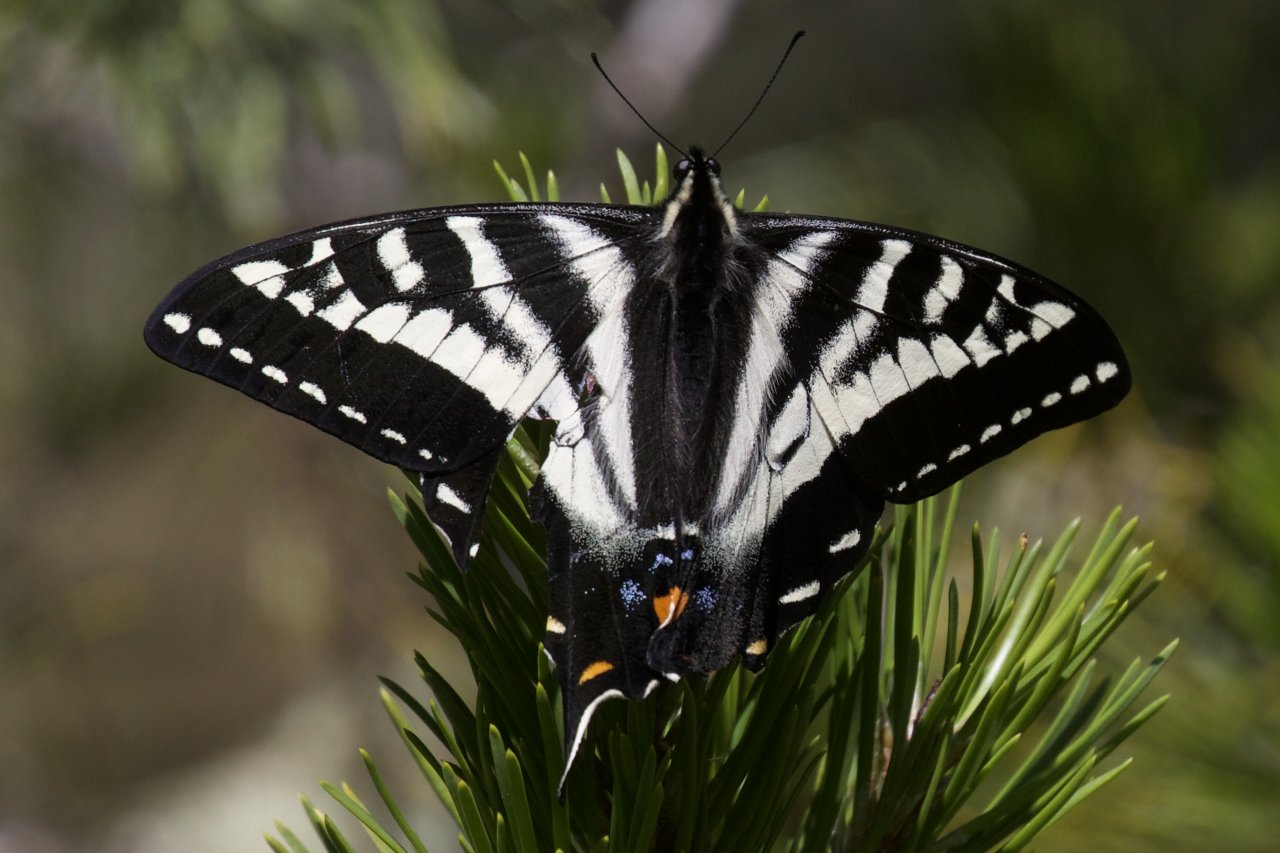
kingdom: Animalia
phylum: Arthropoda
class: Insecta
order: Lepidoptera
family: Papilionidae
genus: Pterourus
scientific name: Pterourus eurymedon
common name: Pale Swallowtail
